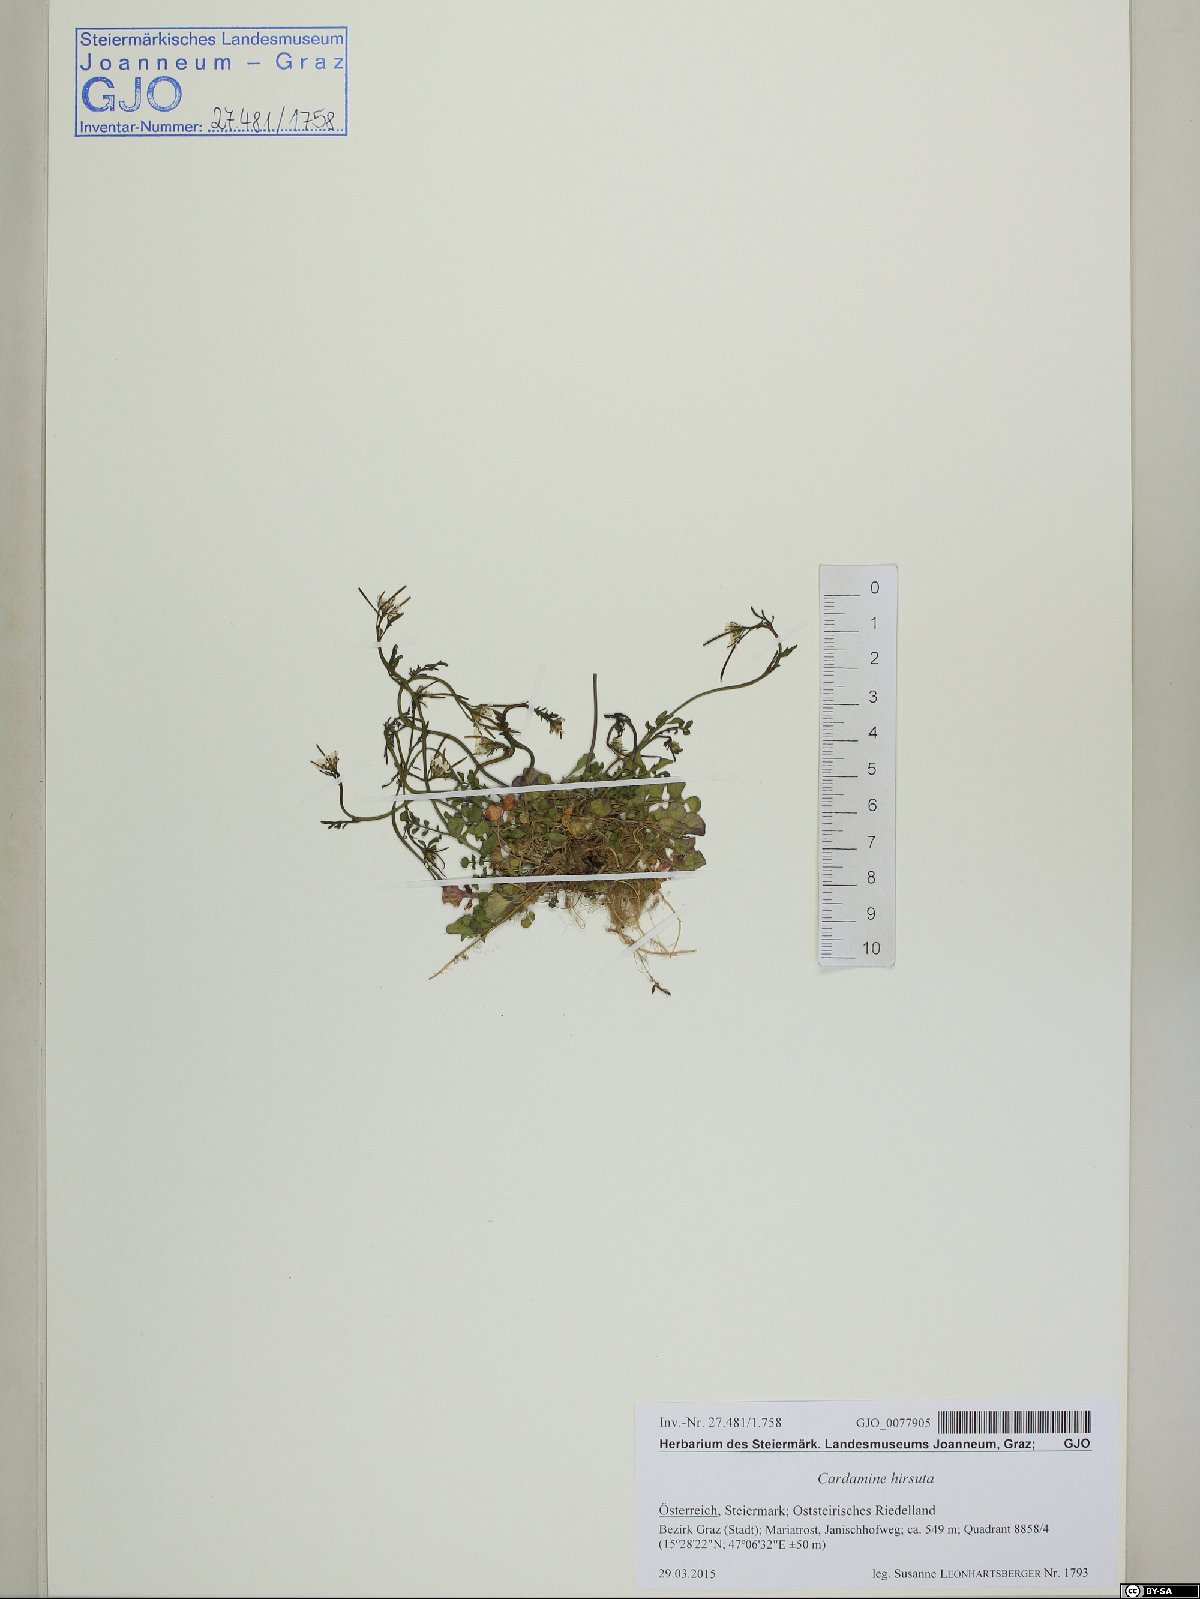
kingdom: Plantae
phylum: Tracheophyta
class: Magnoliopsida
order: Brassicales
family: Brassicaceae
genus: Cardamine
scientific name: Cardamine hirsuta
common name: Hairy bittercress
